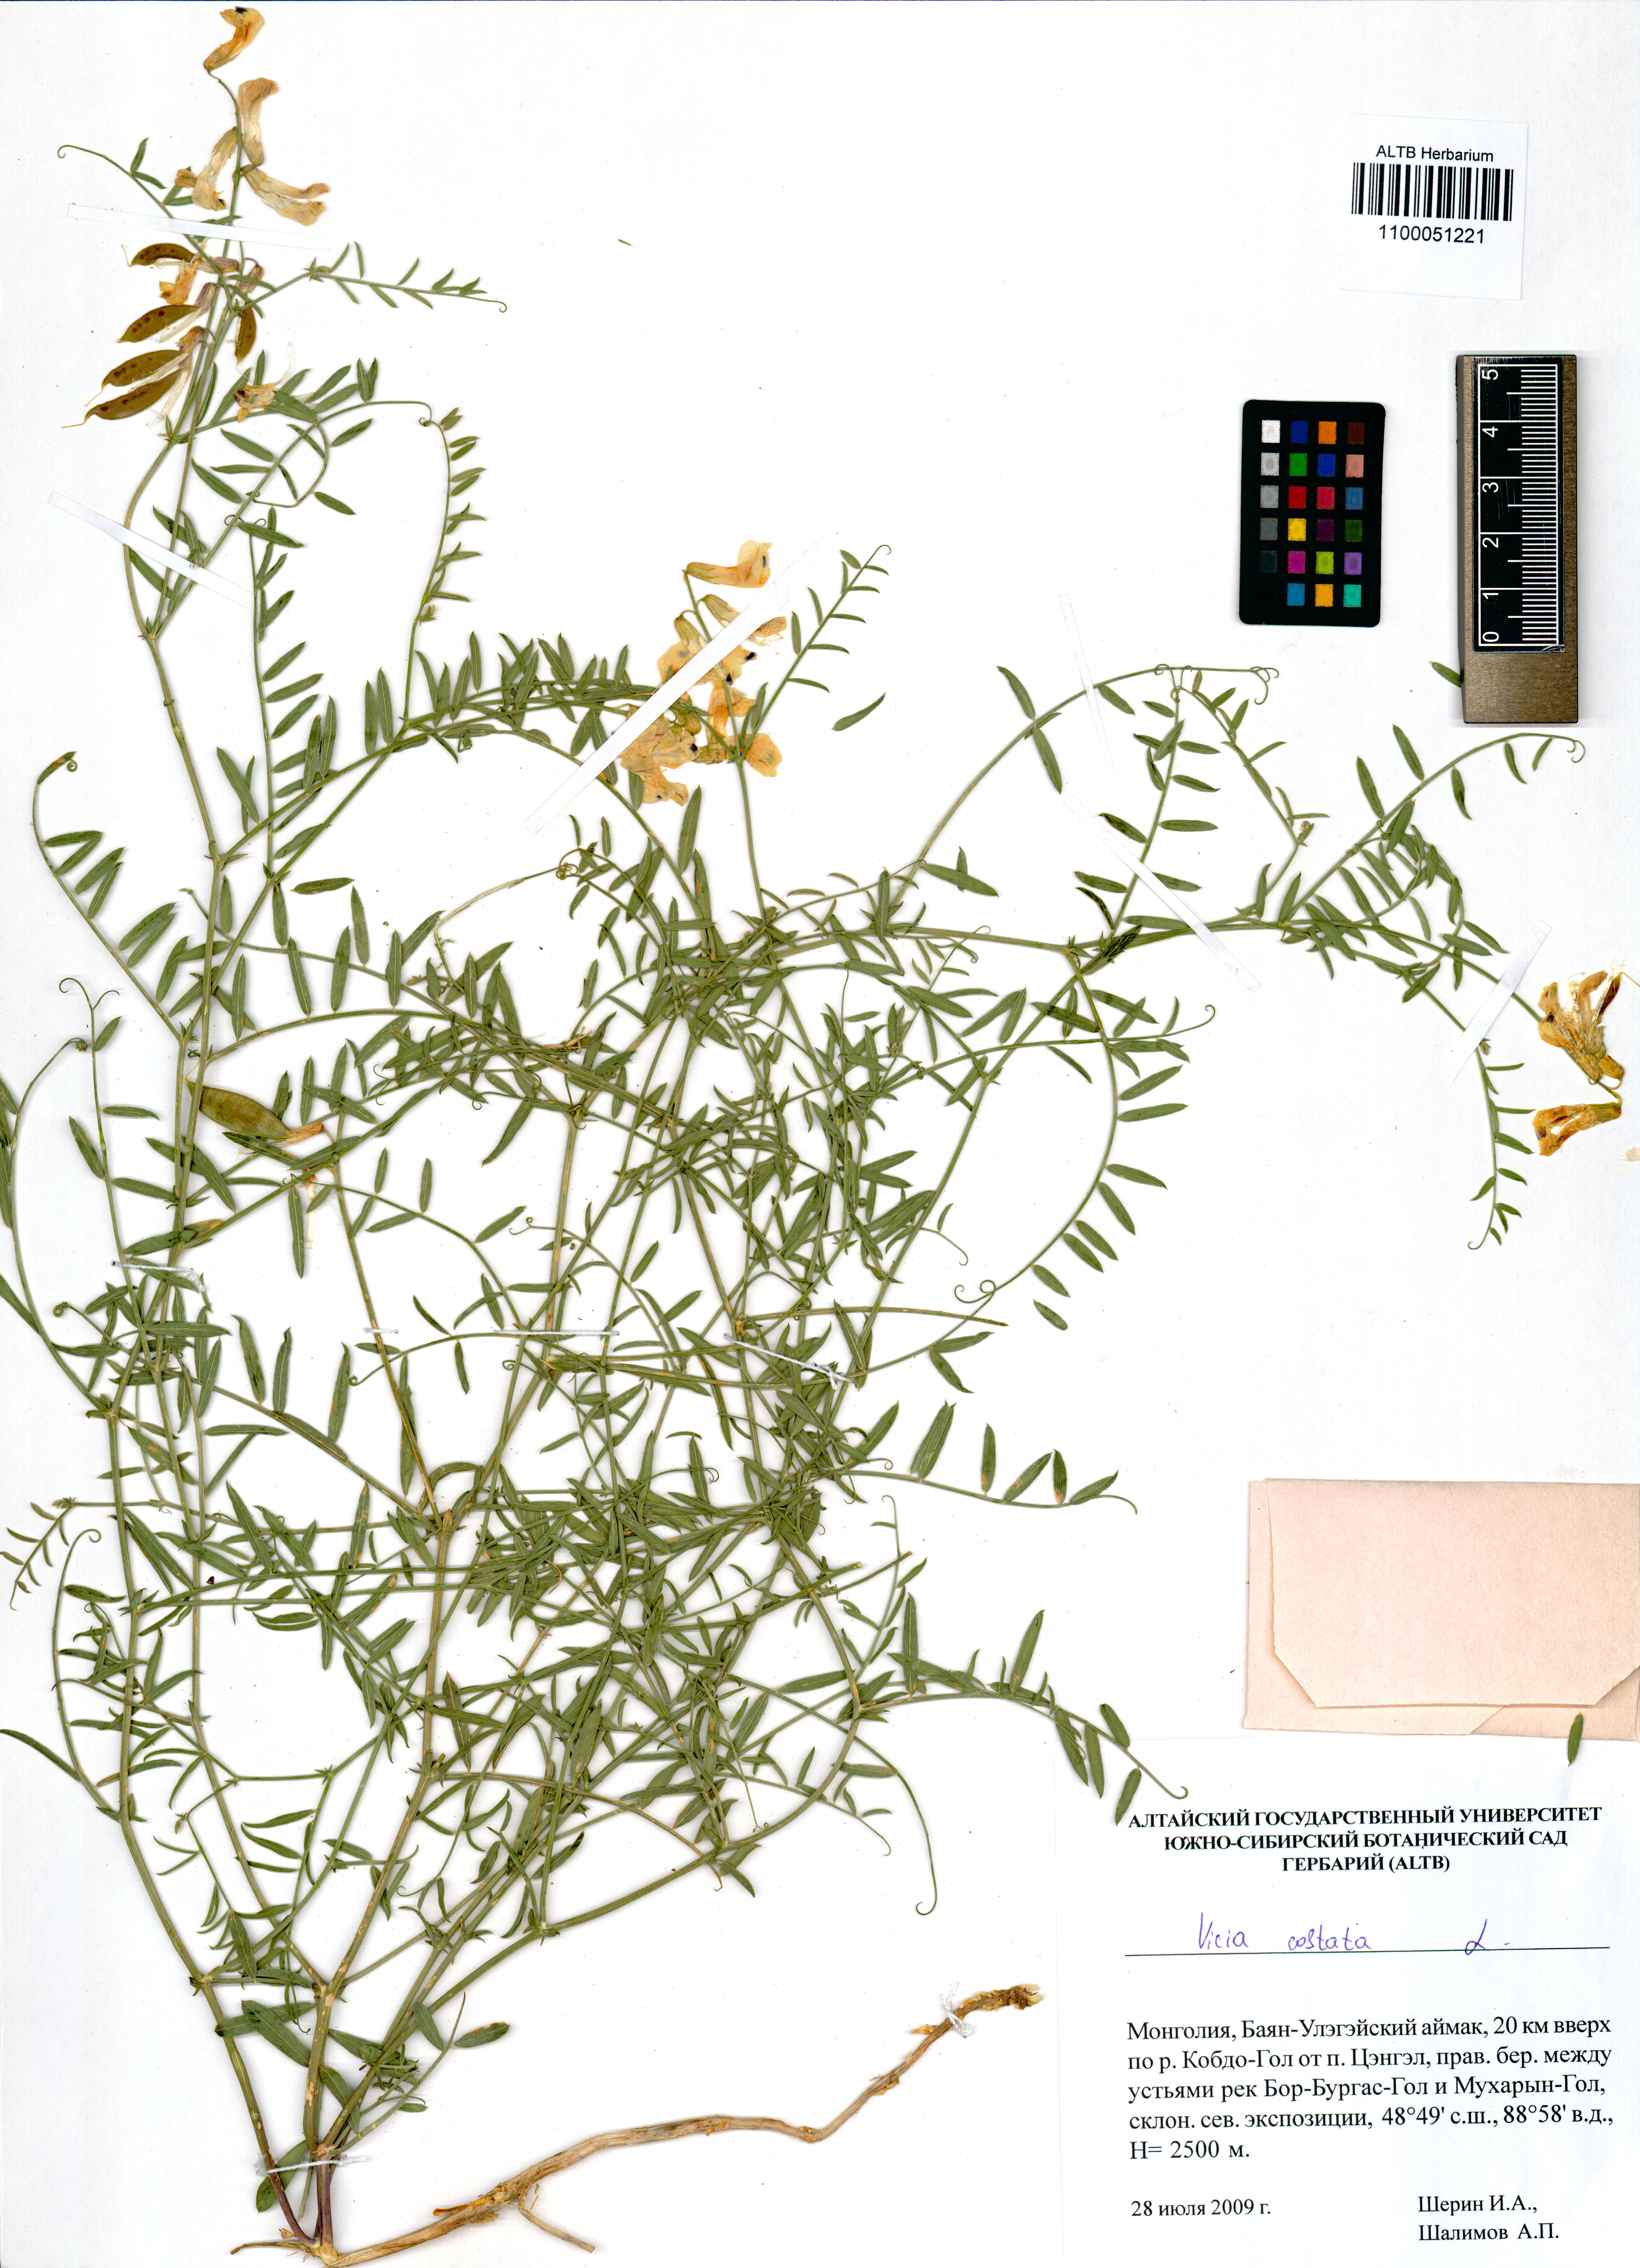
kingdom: Plantae
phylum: Tracheophyta
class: Magnoliopsida
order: Fabales
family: Fabaceae
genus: Vicia
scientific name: Vicia costata
